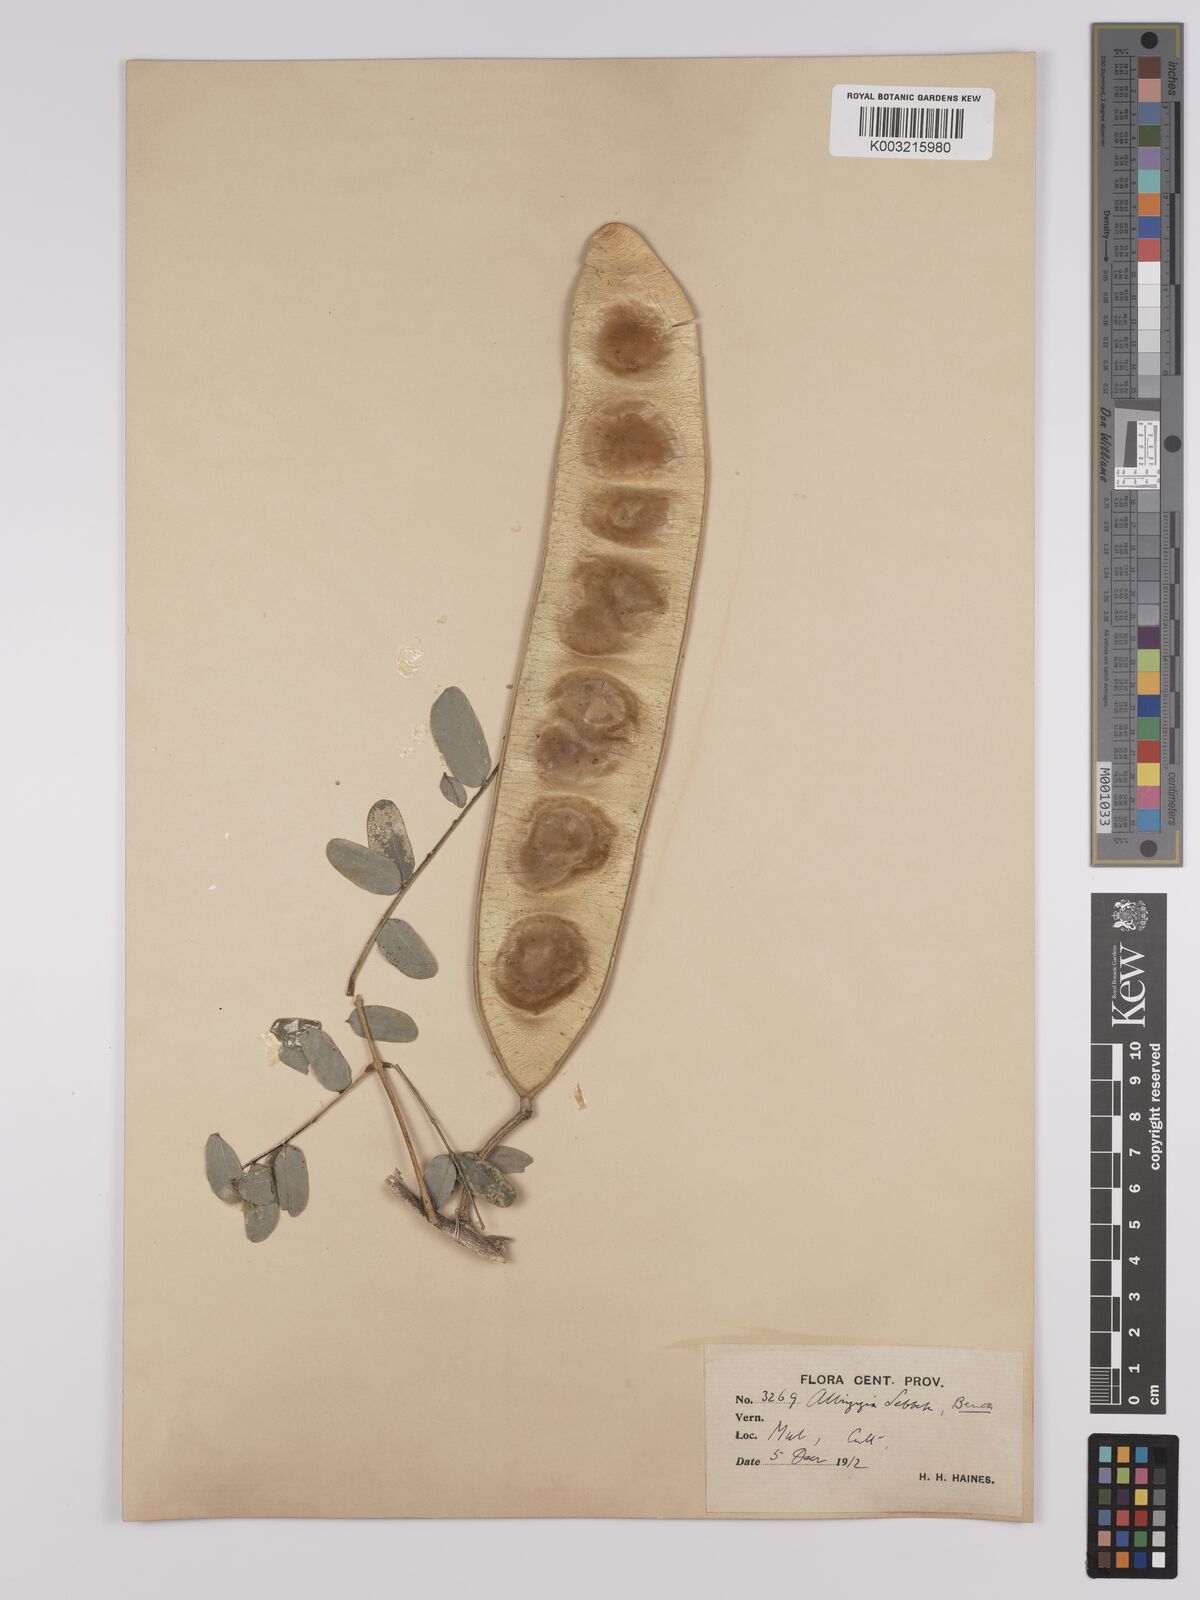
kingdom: Plantae
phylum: Tracheophyta
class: Magnoliopsida
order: Fabales
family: Fabaceae
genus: Albizia
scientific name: Albizia lebbeck
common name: Woman's tongue
